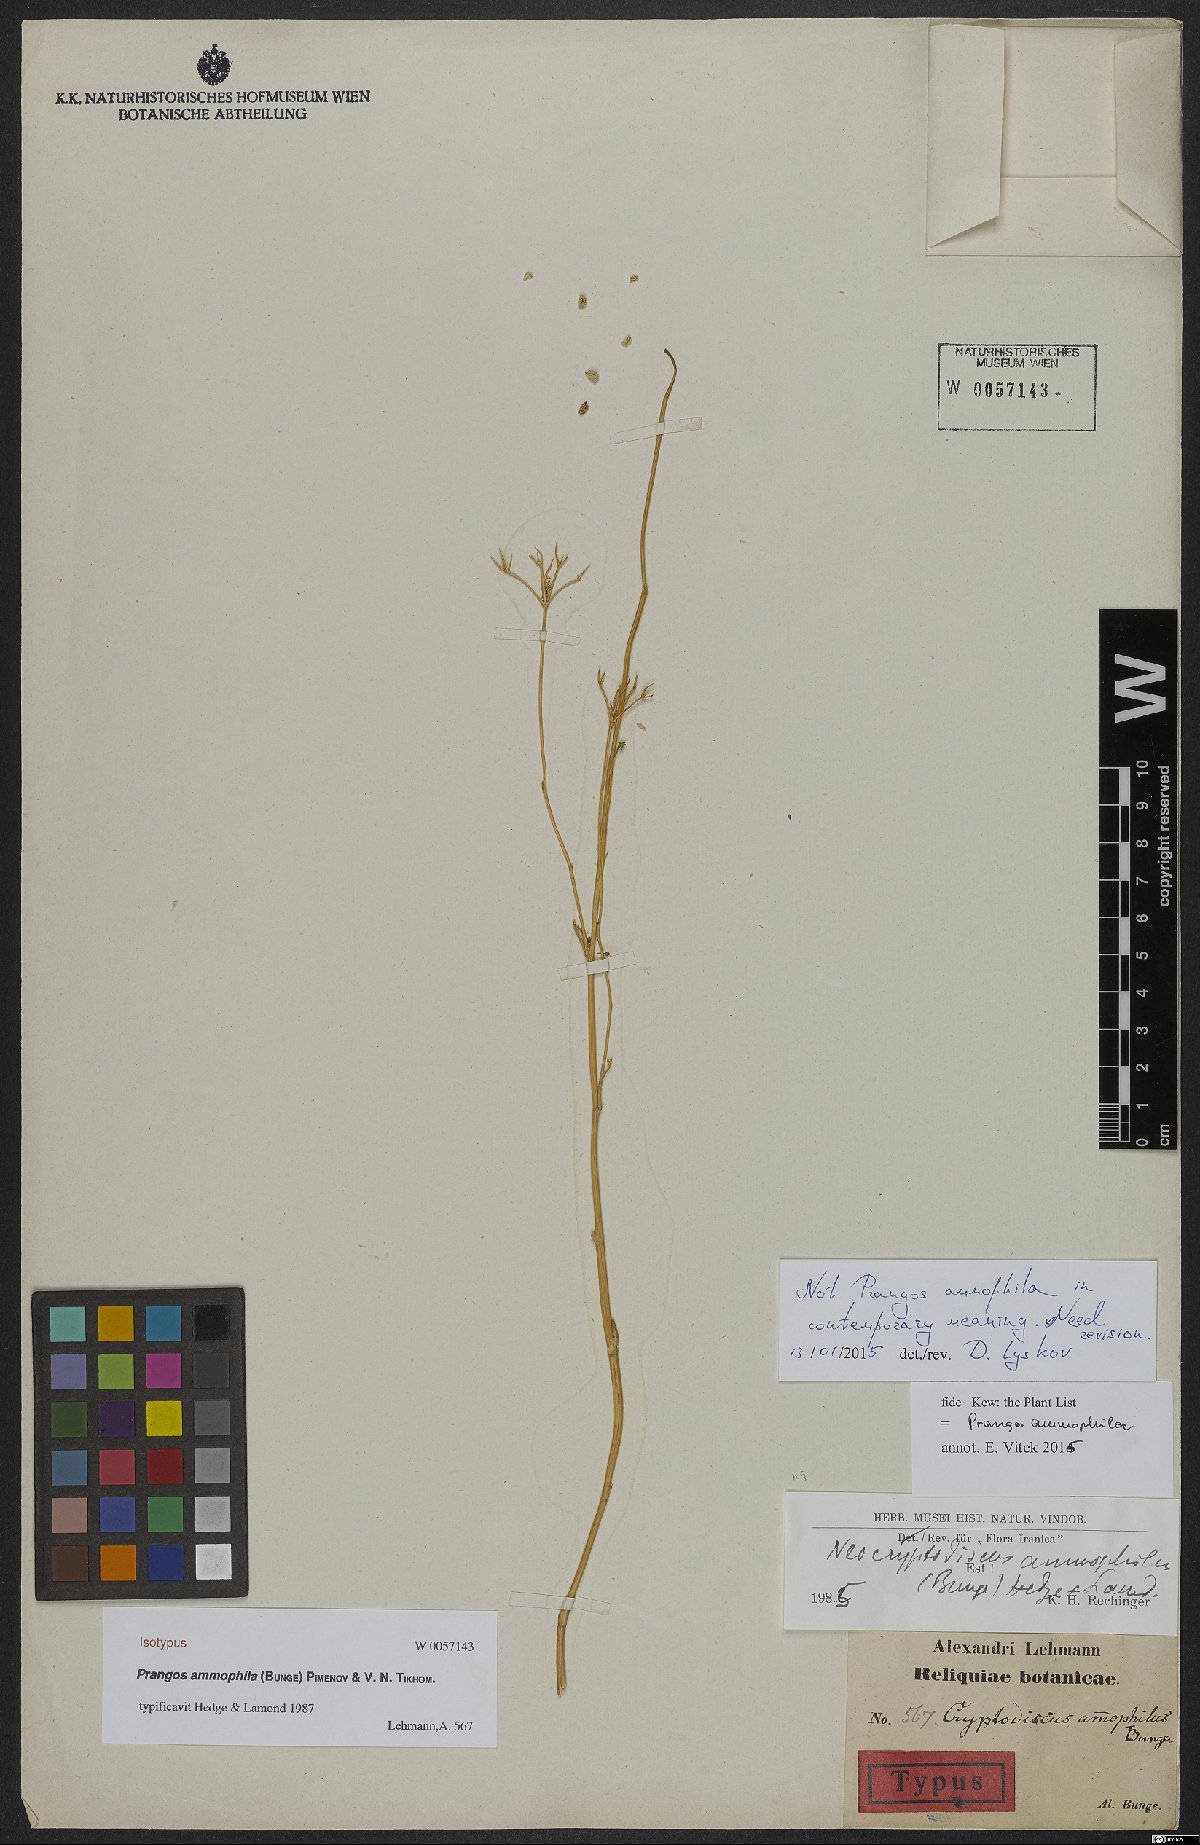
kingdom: Plantae
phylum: Tracheophyta
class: Magnoliopsida
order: Apiales
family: Apiaceae
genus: Eremodaucus
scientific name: Eremodaucus lehmannii
